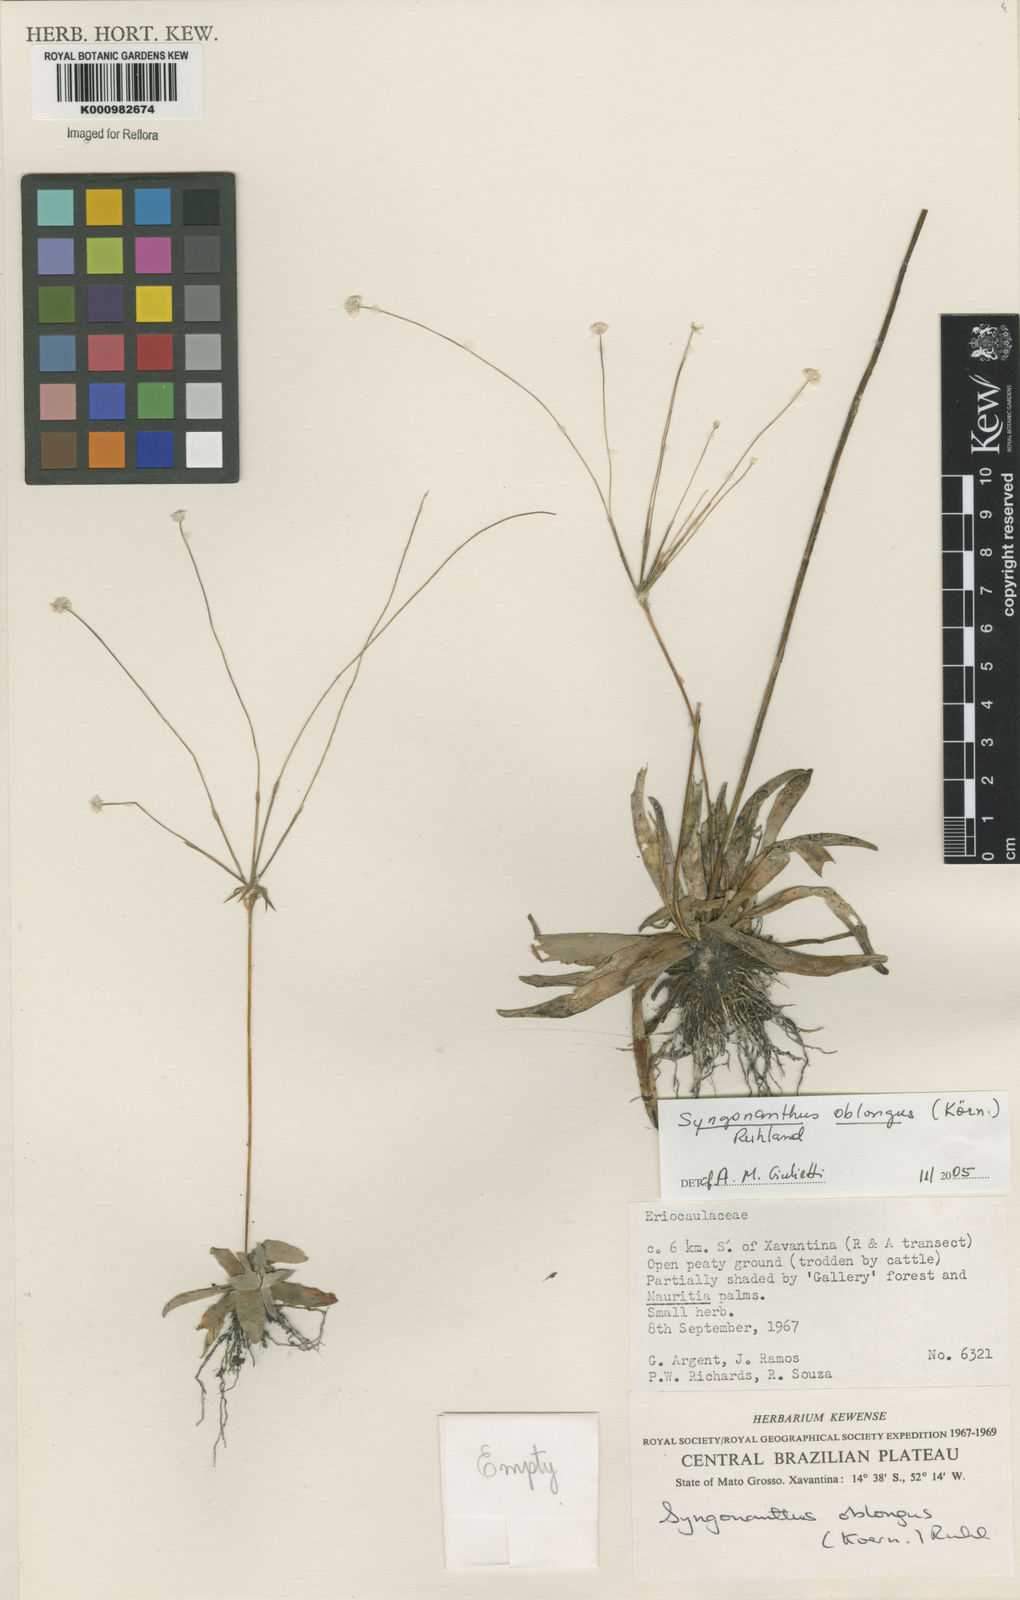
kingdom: Plantae
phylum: Tracheophyta
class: Liliopsida
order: Poales
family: Eriocaulaceae
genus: Syngonanthus
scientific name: Syngonanthus
